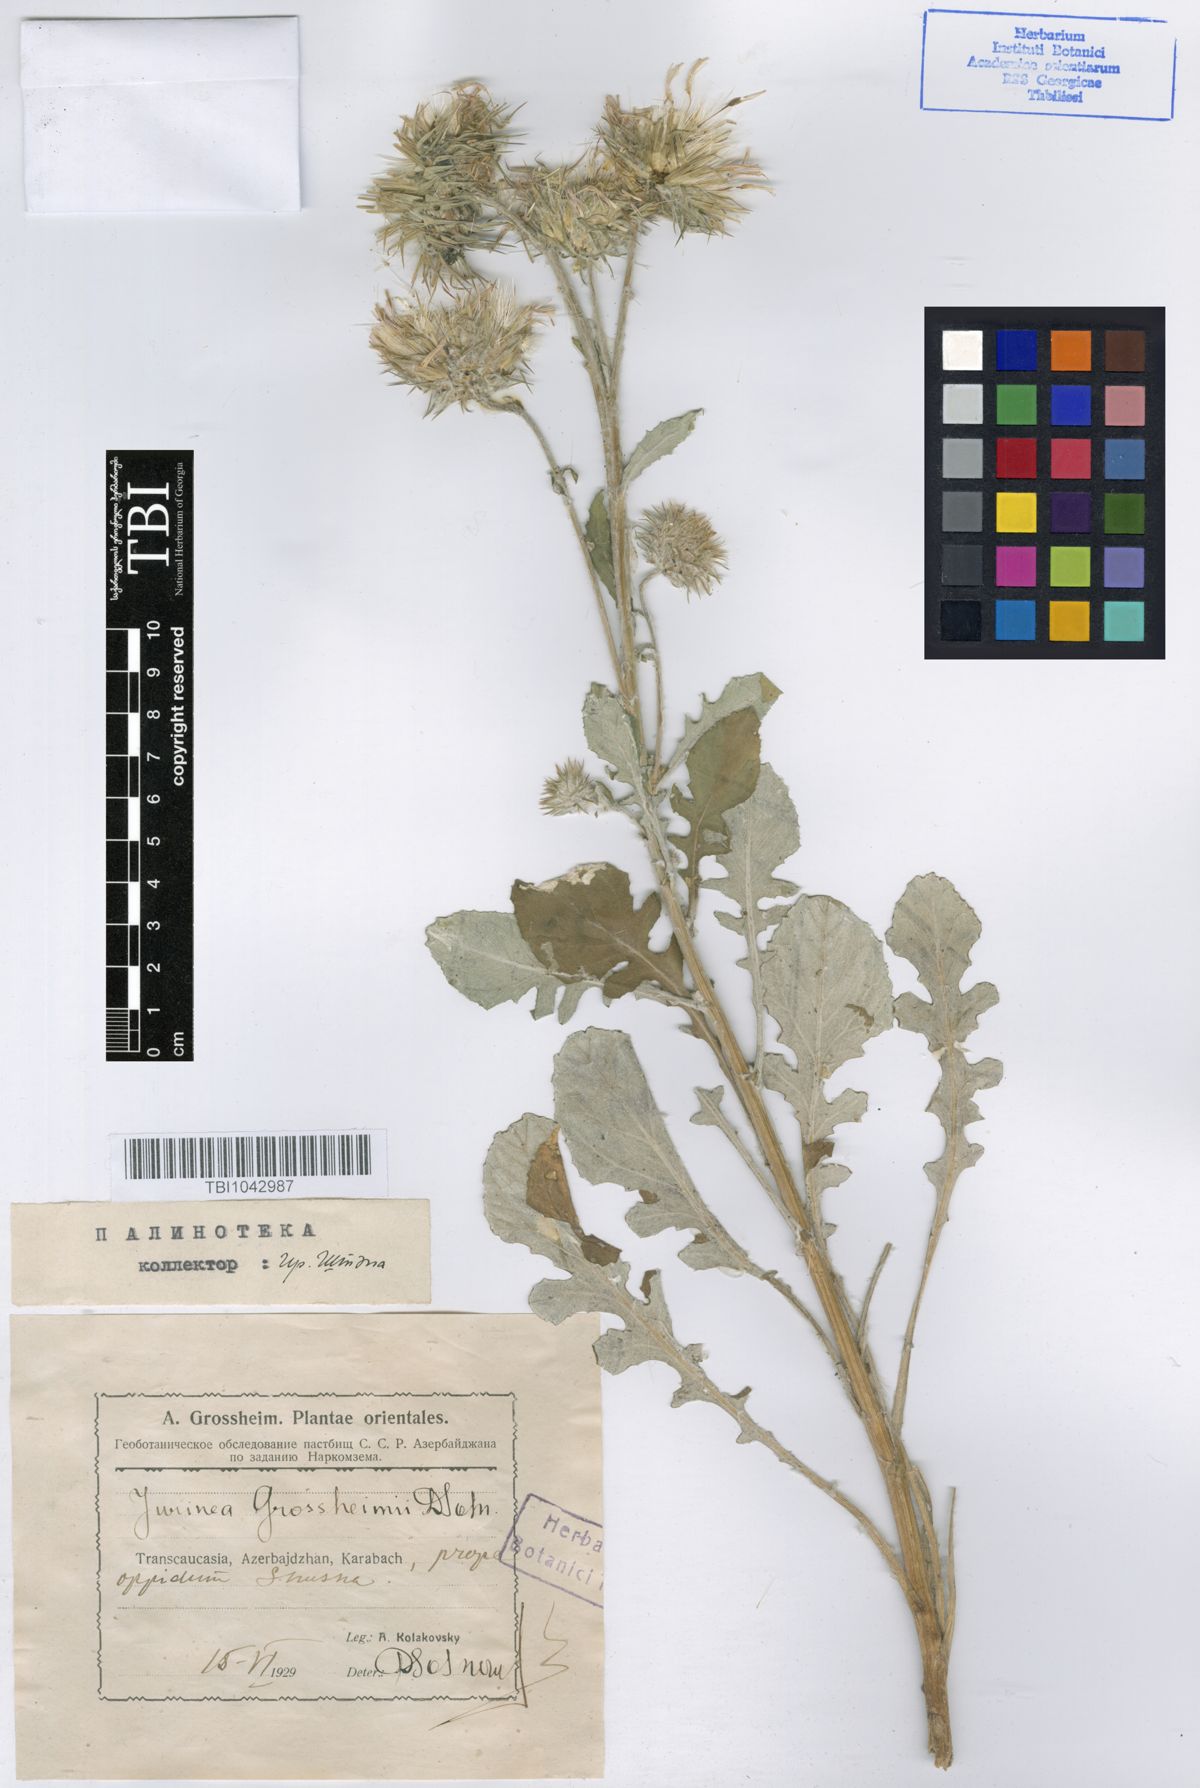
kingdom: Plantae
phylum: Tracheophyta
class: Magnoliopsida
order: Asterales
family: Asteraceae
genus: Jurinea
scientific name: Jurinea grossheimii
